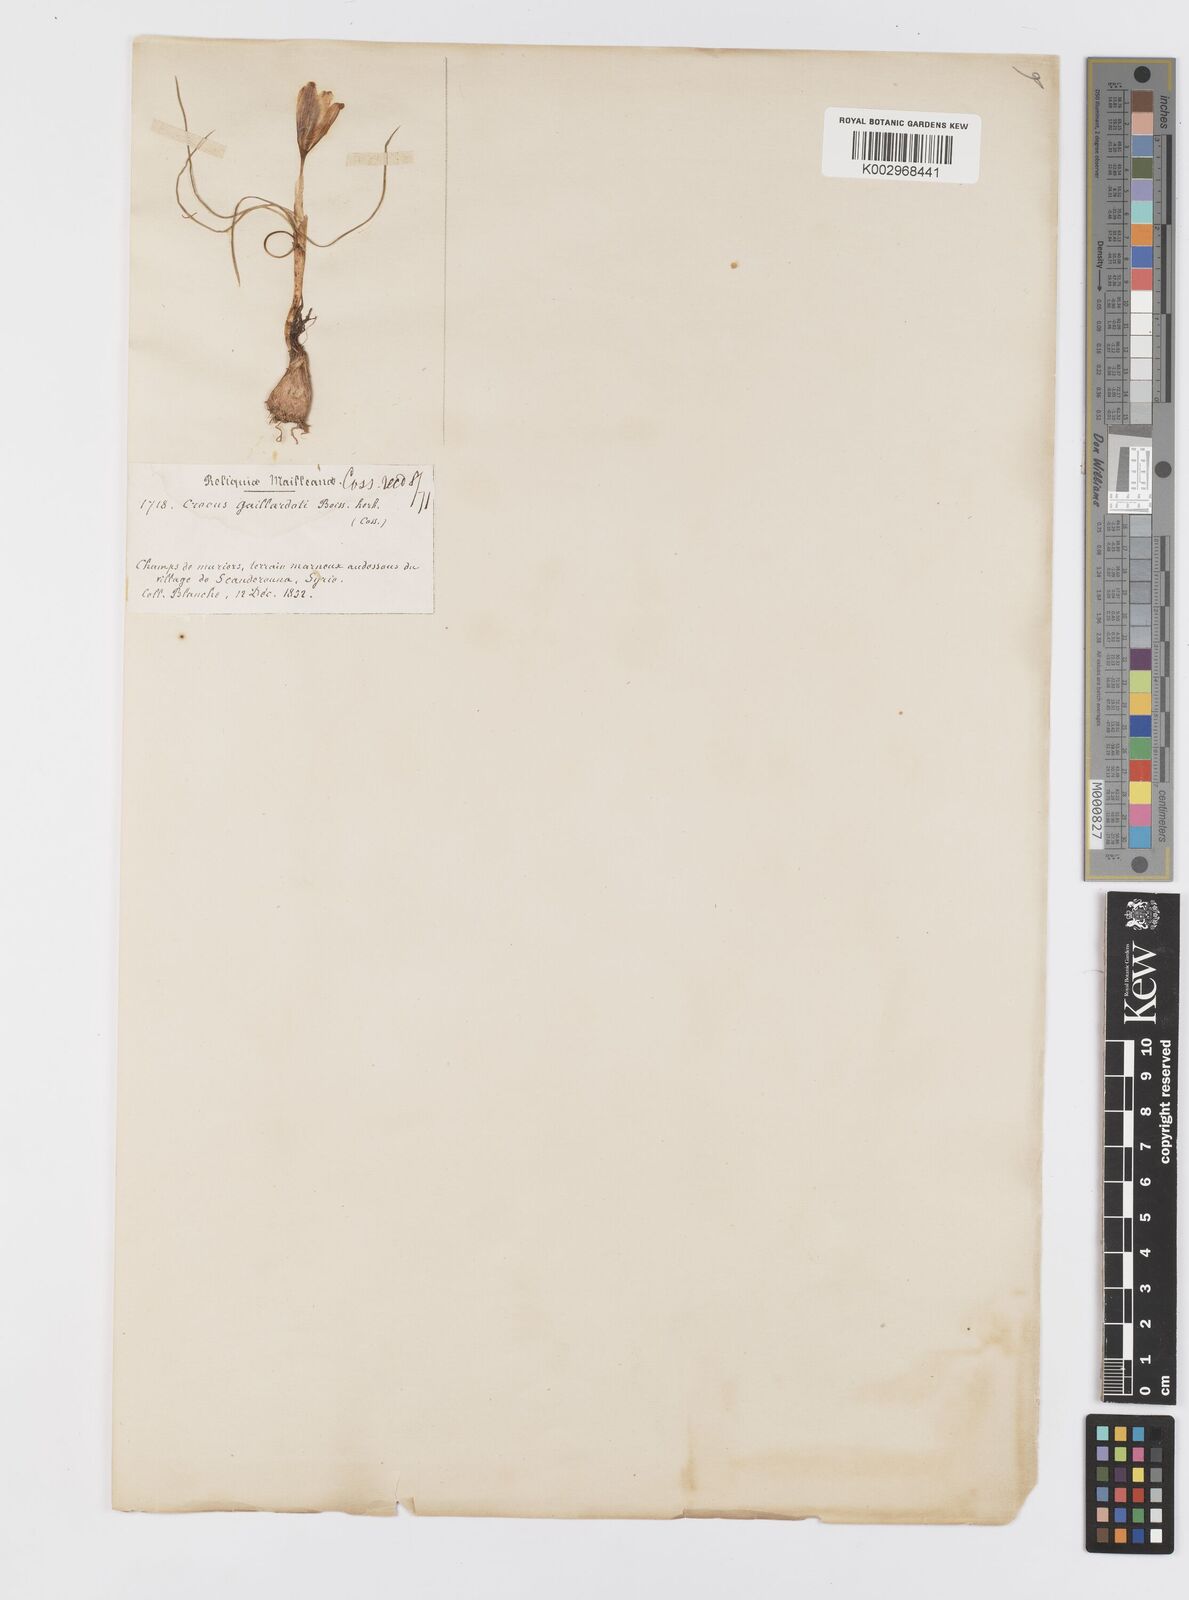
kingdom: Plantae
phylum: Tracheophyta
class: Liliopsida
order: Asparagales
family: Iridaceae
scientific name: Iridaceae
